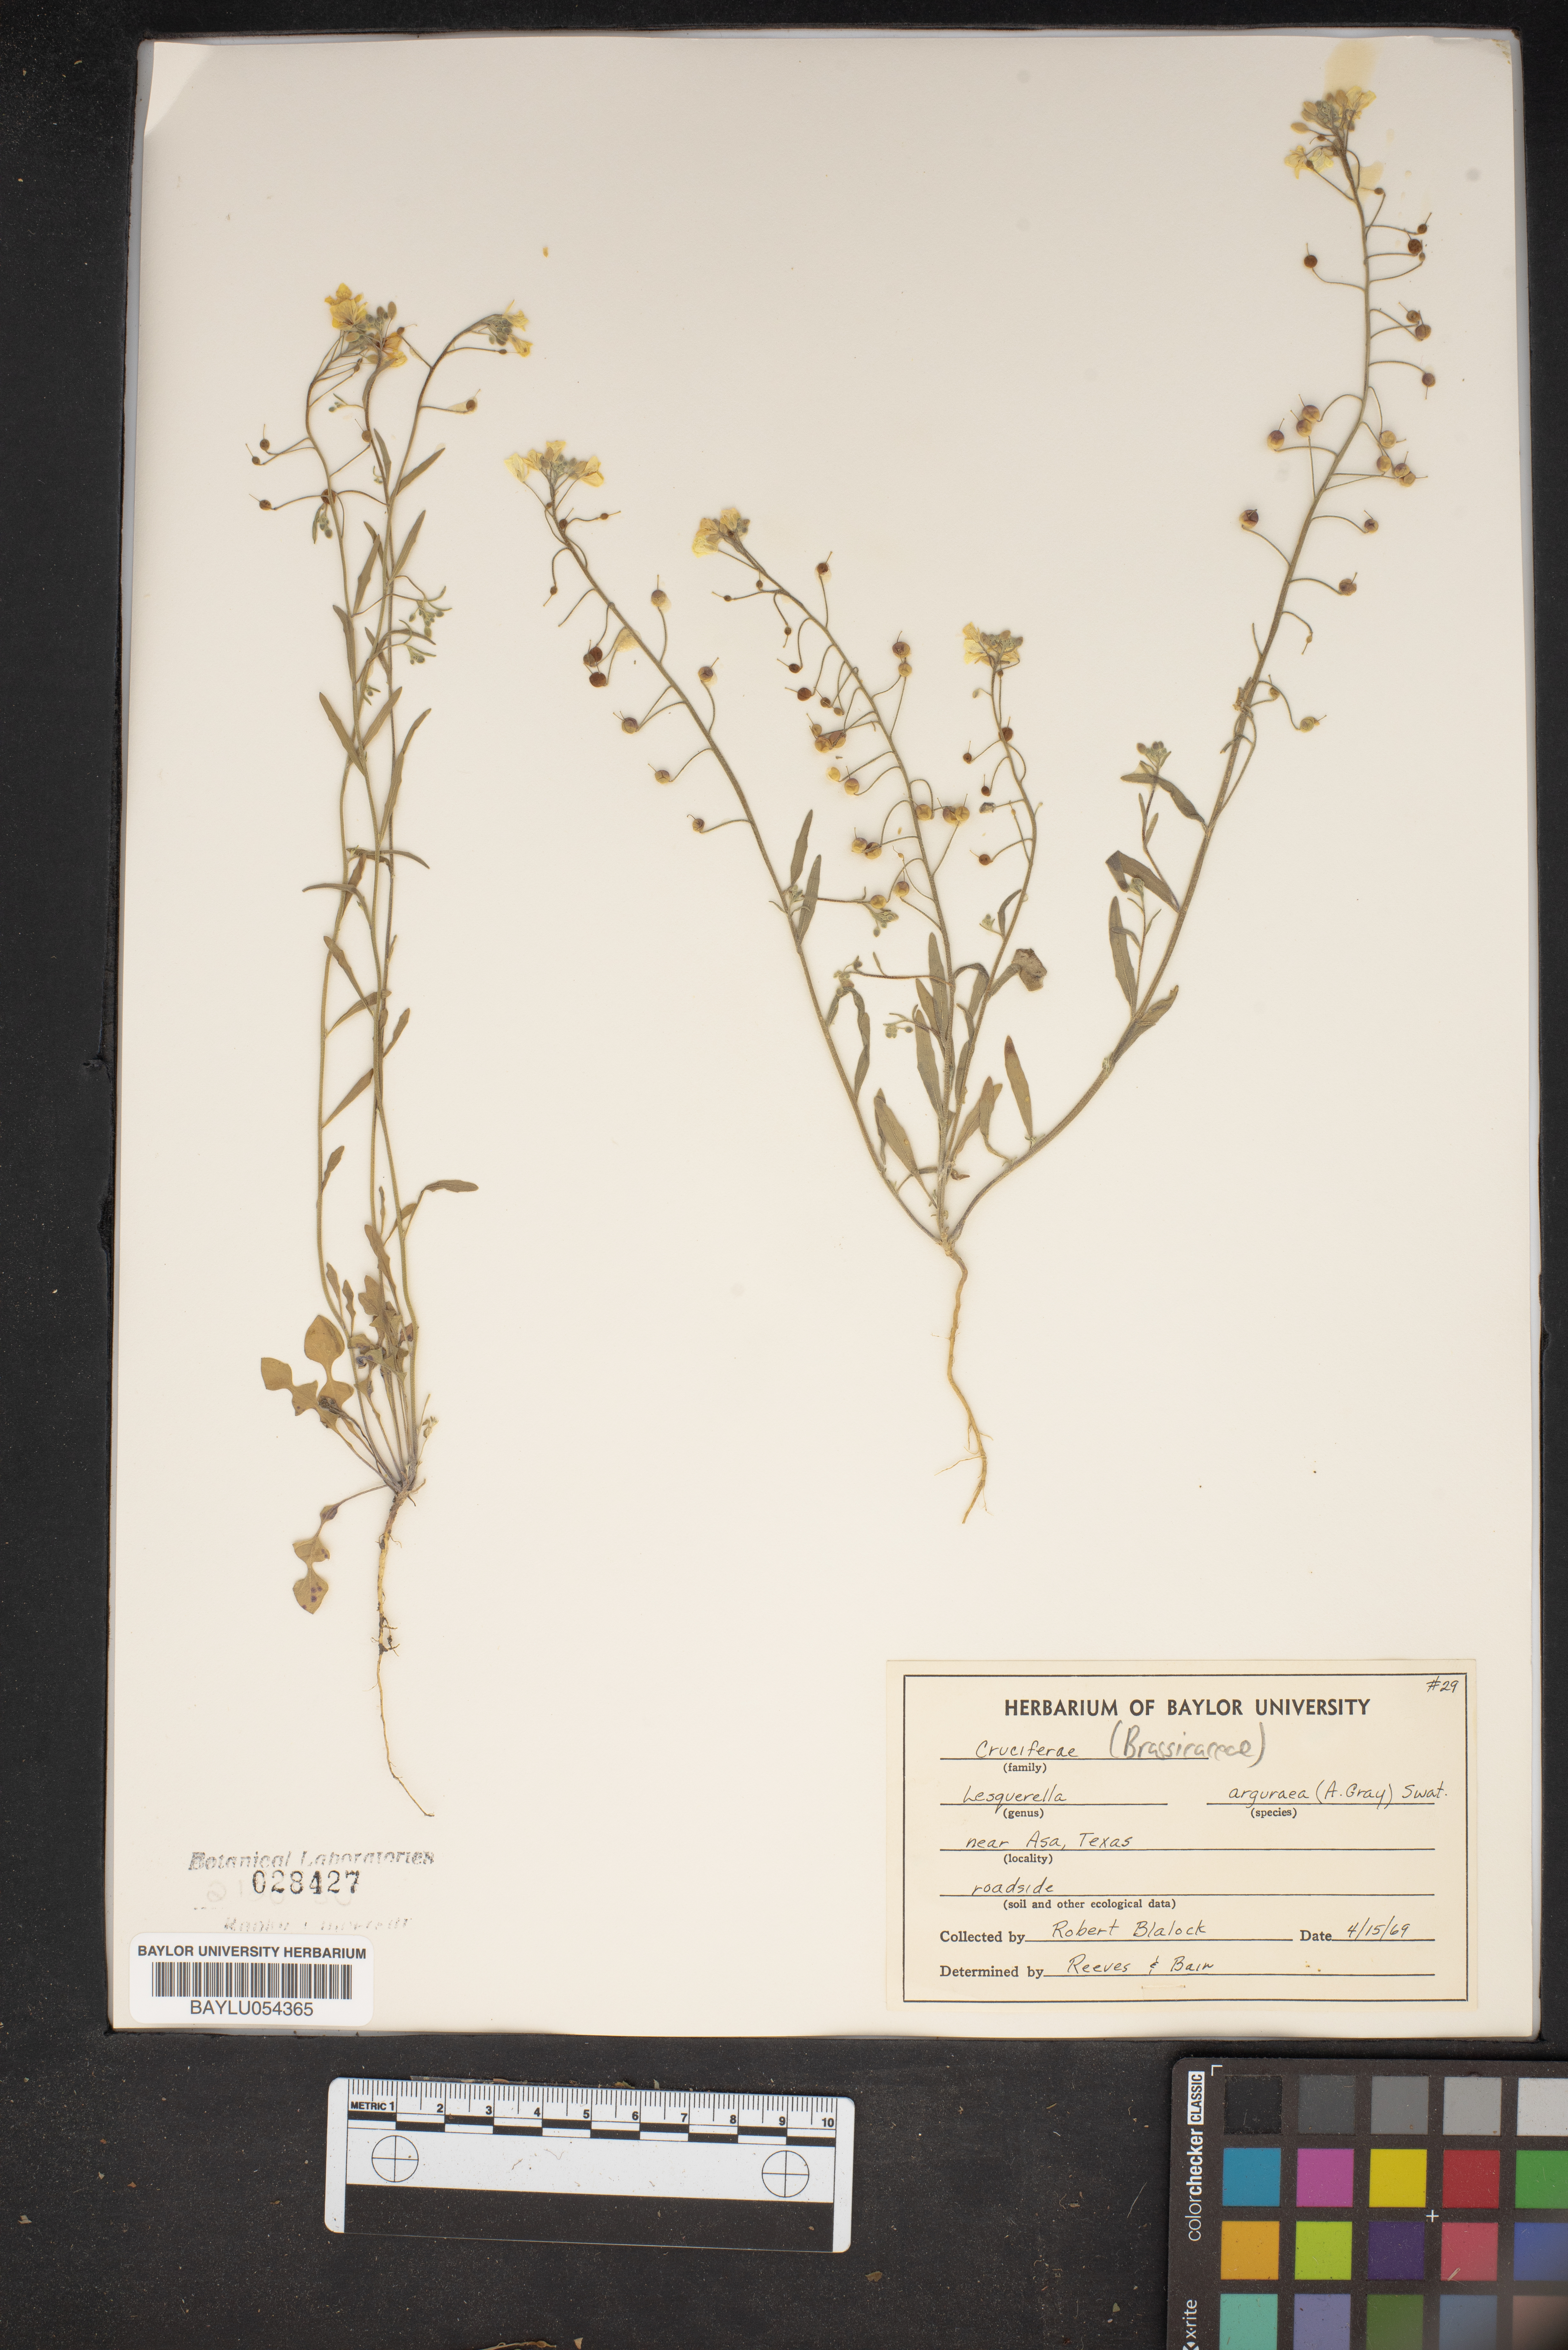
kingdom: Plantae
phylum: Tracheophyta
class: Magnoliopsida
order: Brassicales
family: Brassicaceae
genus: Physaria
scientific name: Physaria argyraea
